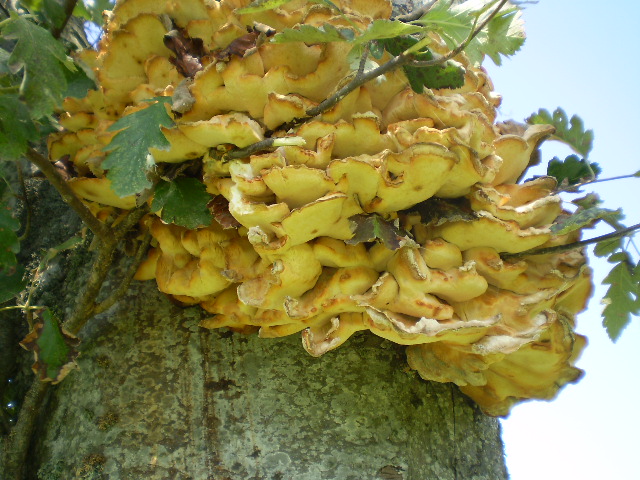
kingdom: Fungi
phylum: Basidiomycota
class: Agaricomycetes
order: Polyporales
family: Laetiporaceae
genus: Laetiporus
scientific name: Laetiporus sulphureus
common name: svovlporesvamp
